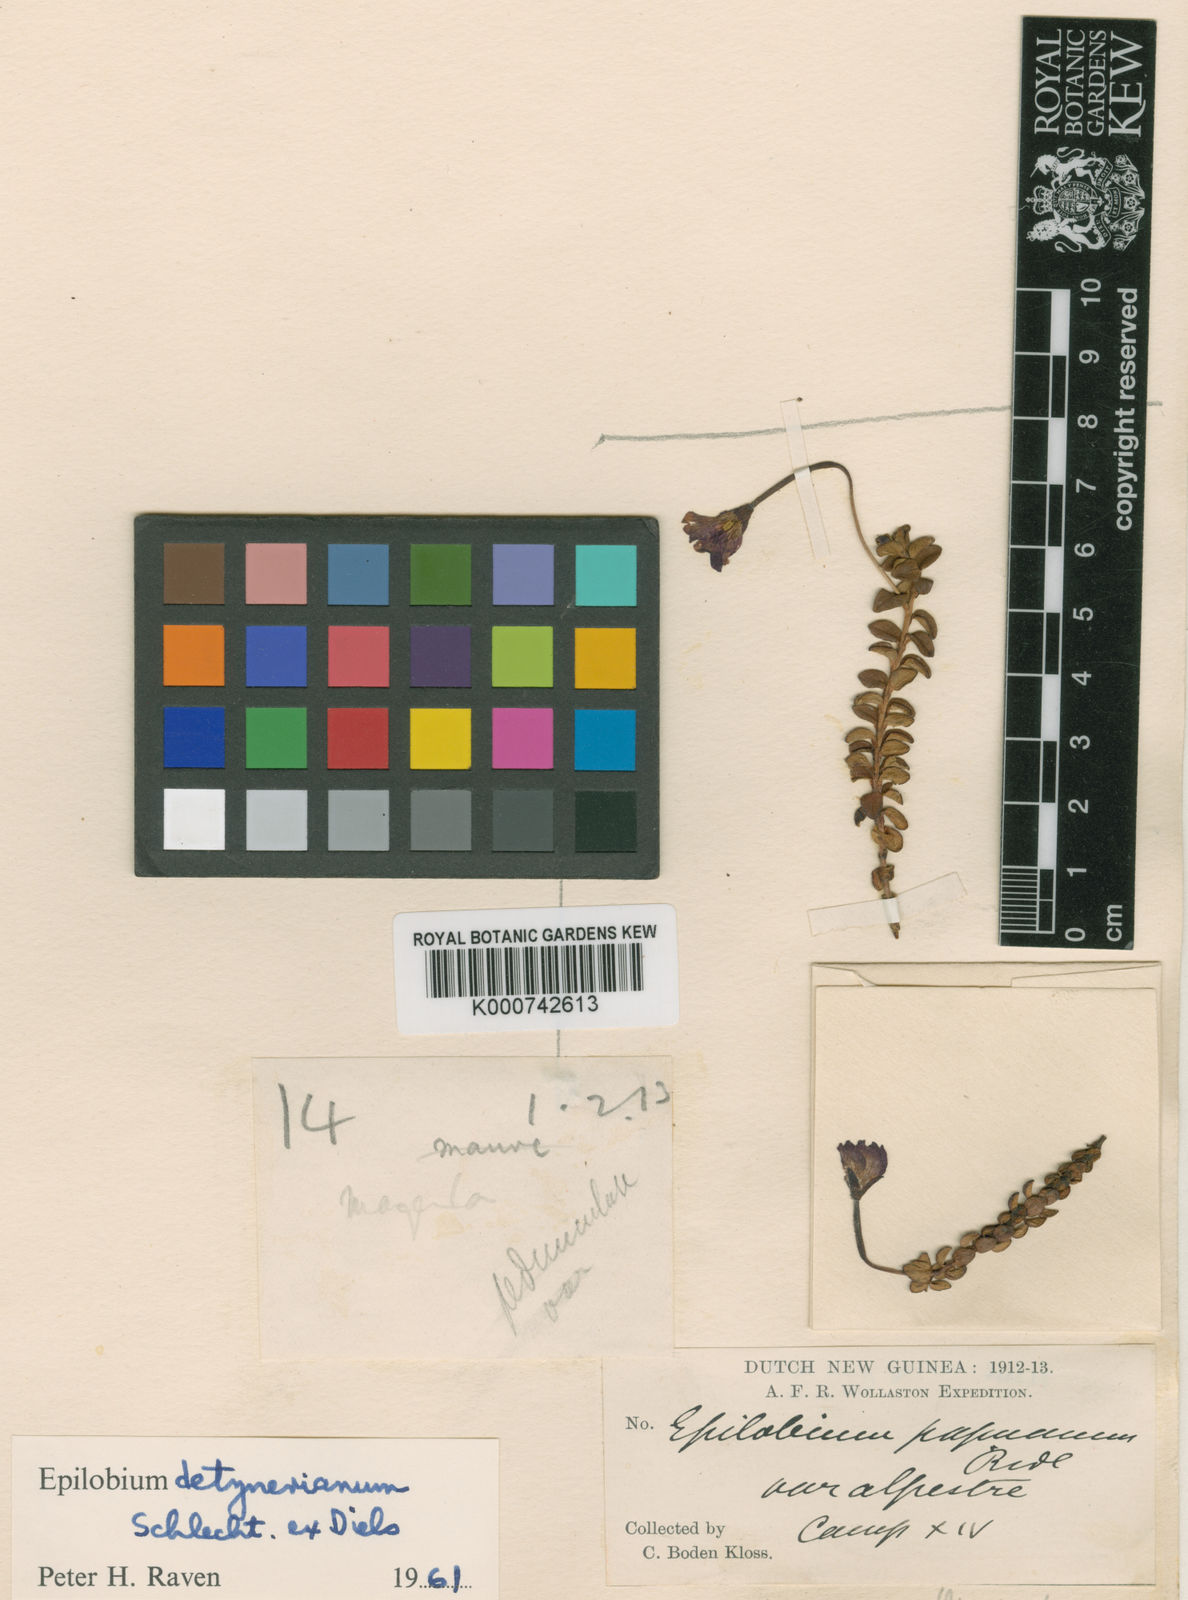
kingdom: Plantae
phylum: Tracheophyta
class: Magnoliopsida
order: Myrtales
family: Onagraceae
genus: Epilobium
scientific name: Epilobium detznerianum
